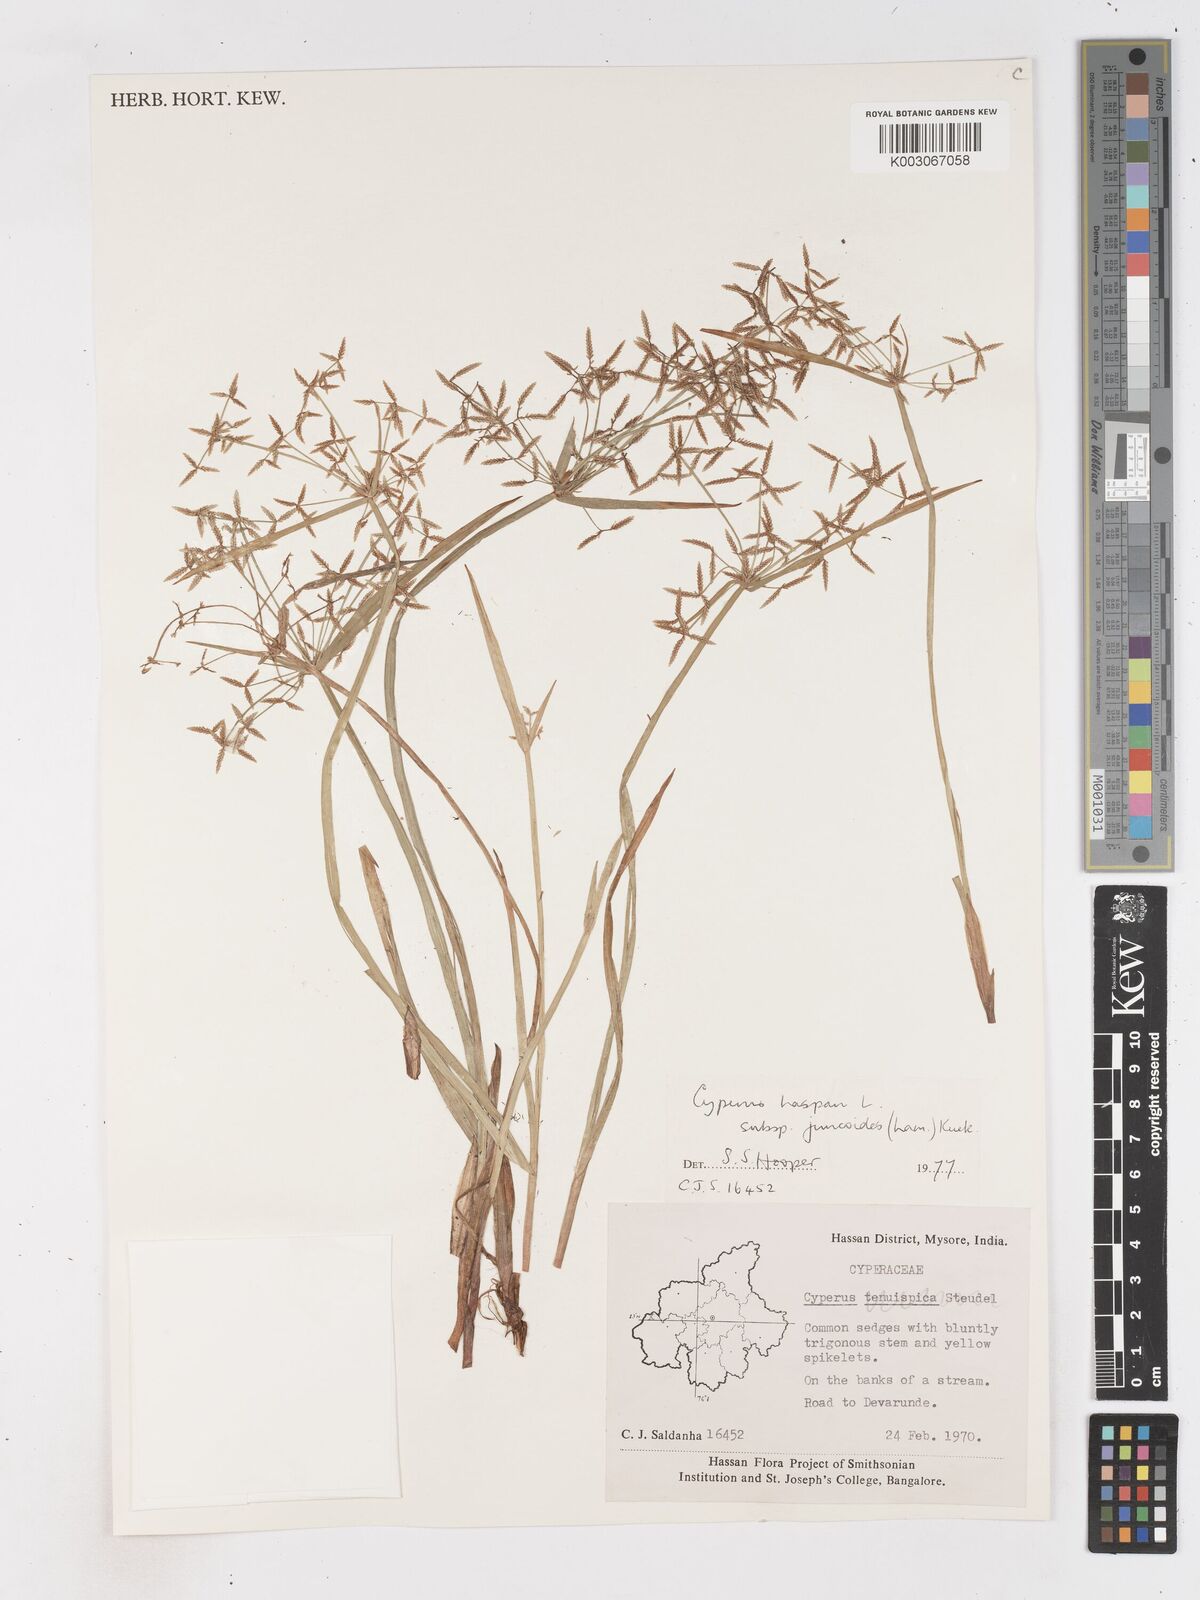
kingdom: Plantae
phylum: Tracheophyta
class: Liliopsida
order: Poales
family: Cyperaceae
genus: Cyperus
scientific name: Cyperus haspan
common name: Haspan flatsedge
